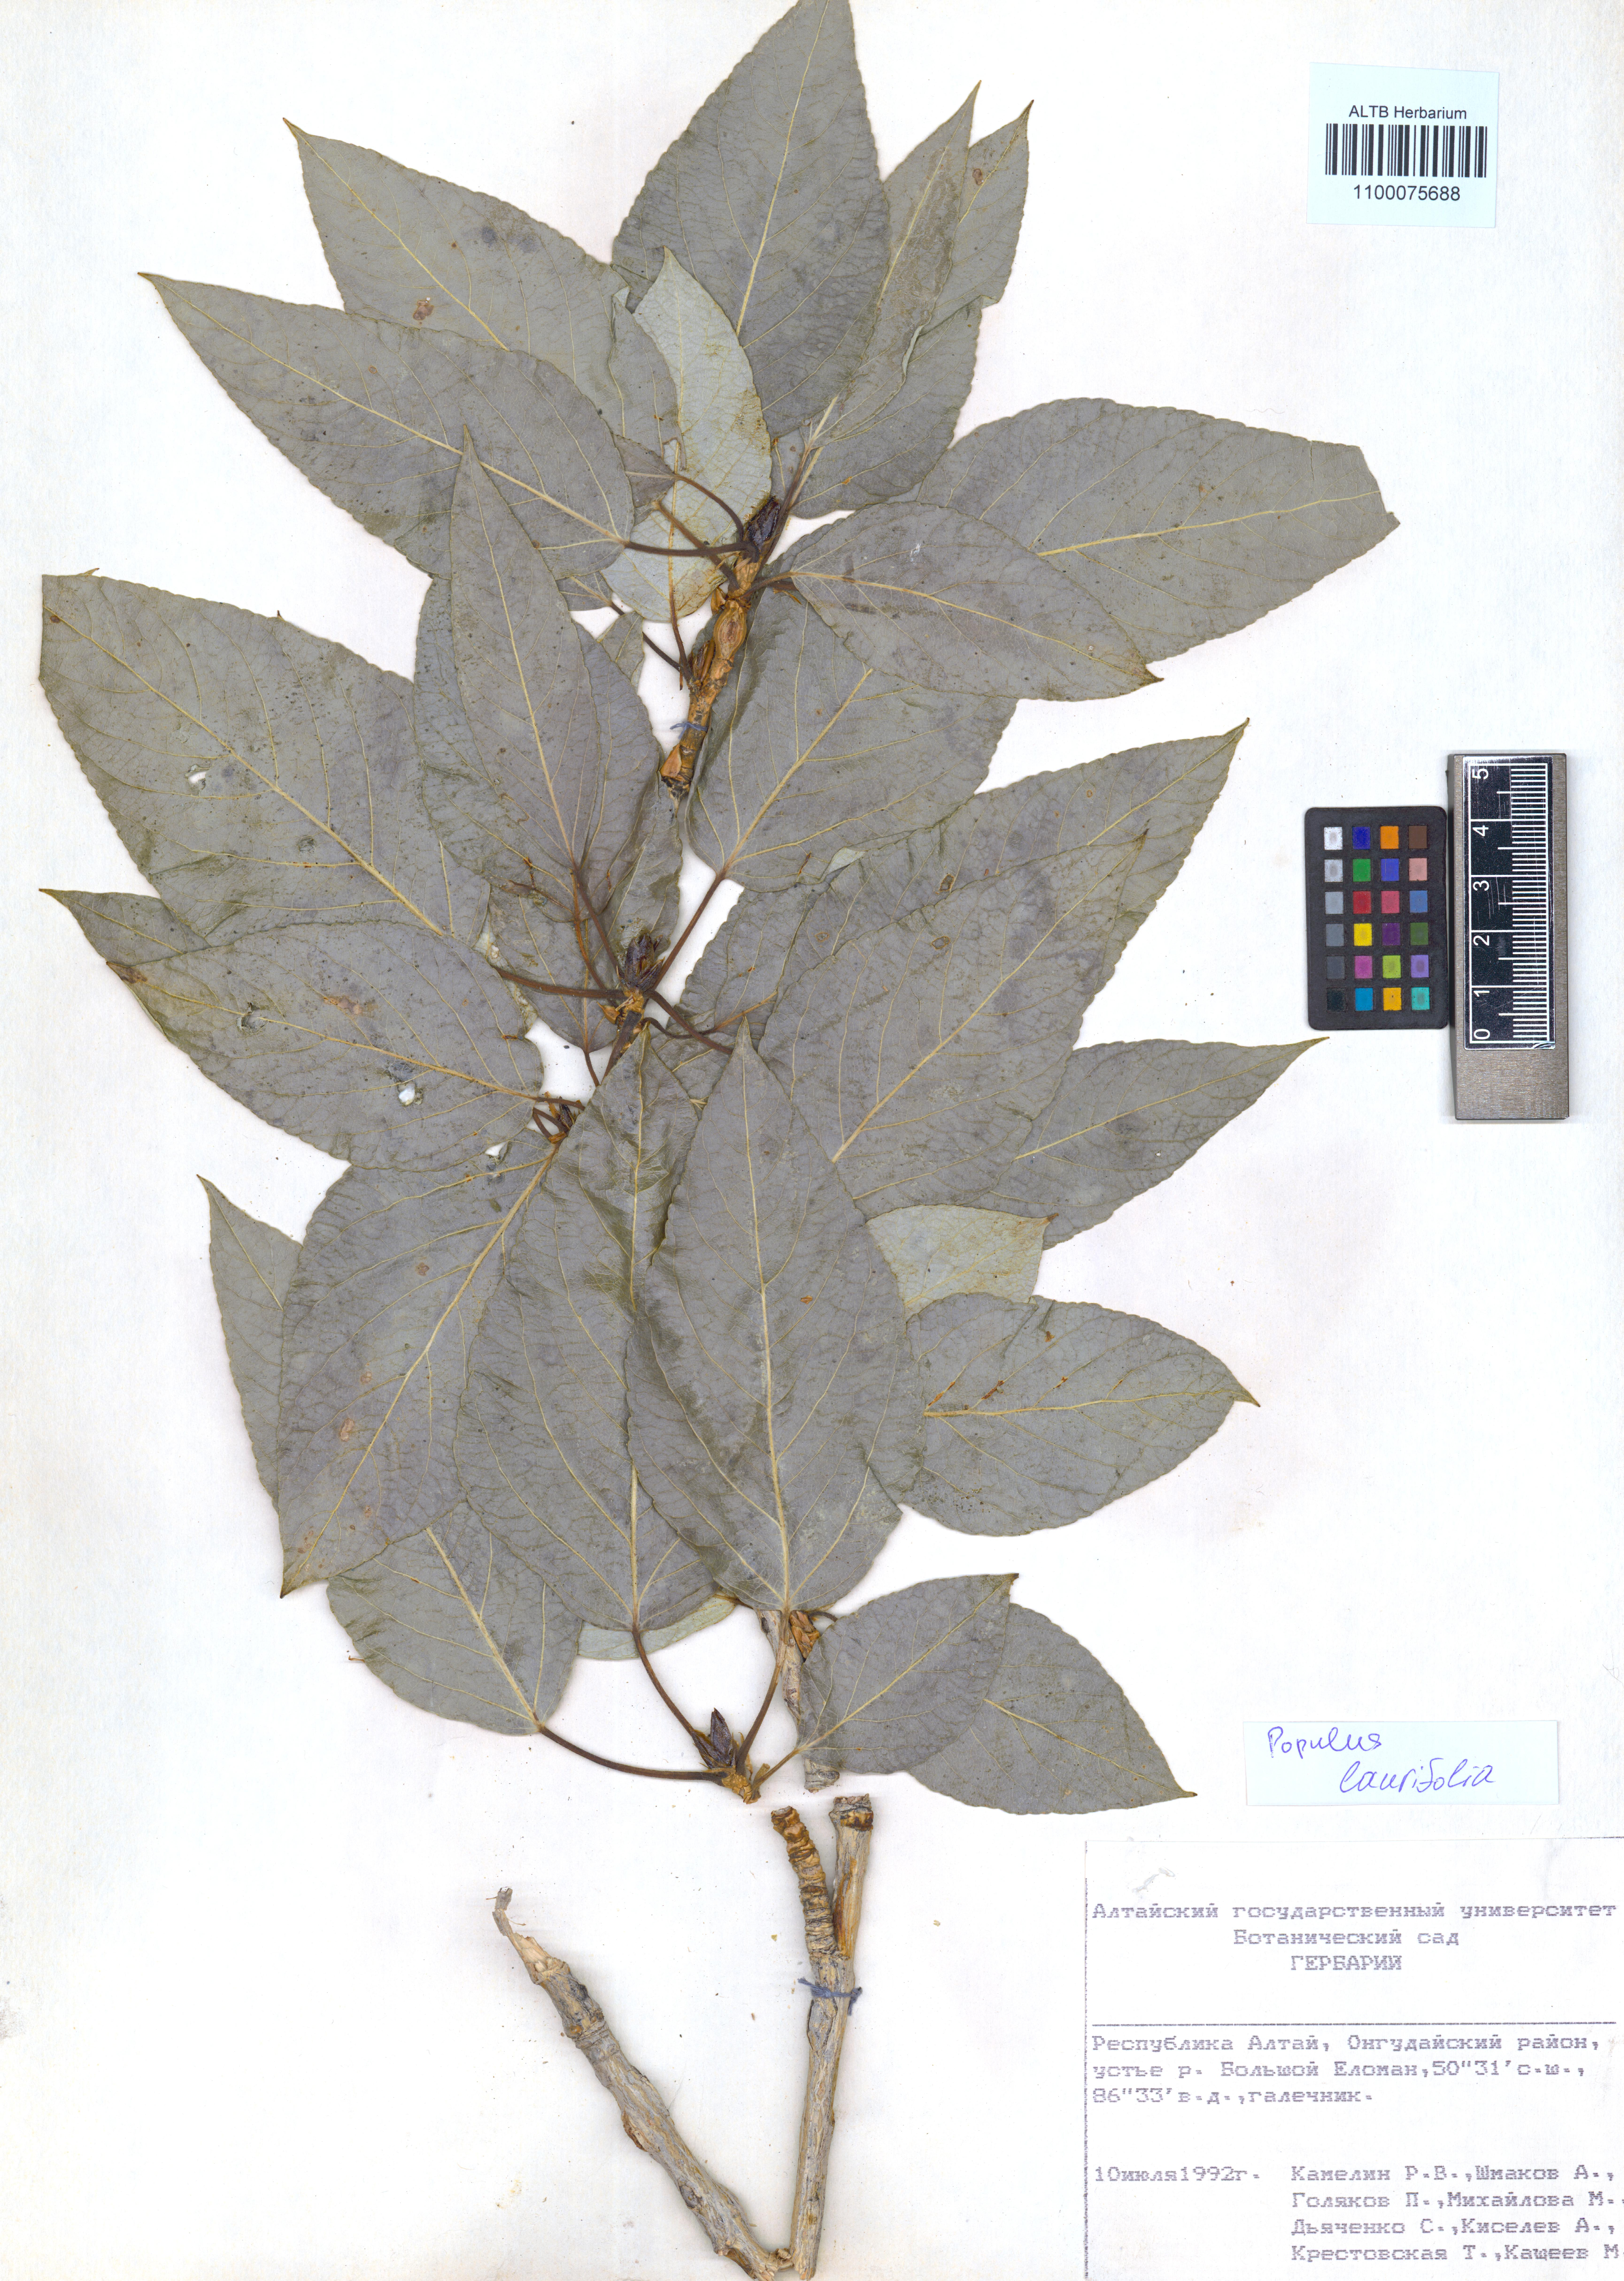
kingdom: Plantae
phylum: Tracheophyta
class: Magnoliopsida
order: Malpighiales
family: Salicaceae
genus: Populus
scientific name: Populus laurifolia
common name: Laurel-leaf poplar
